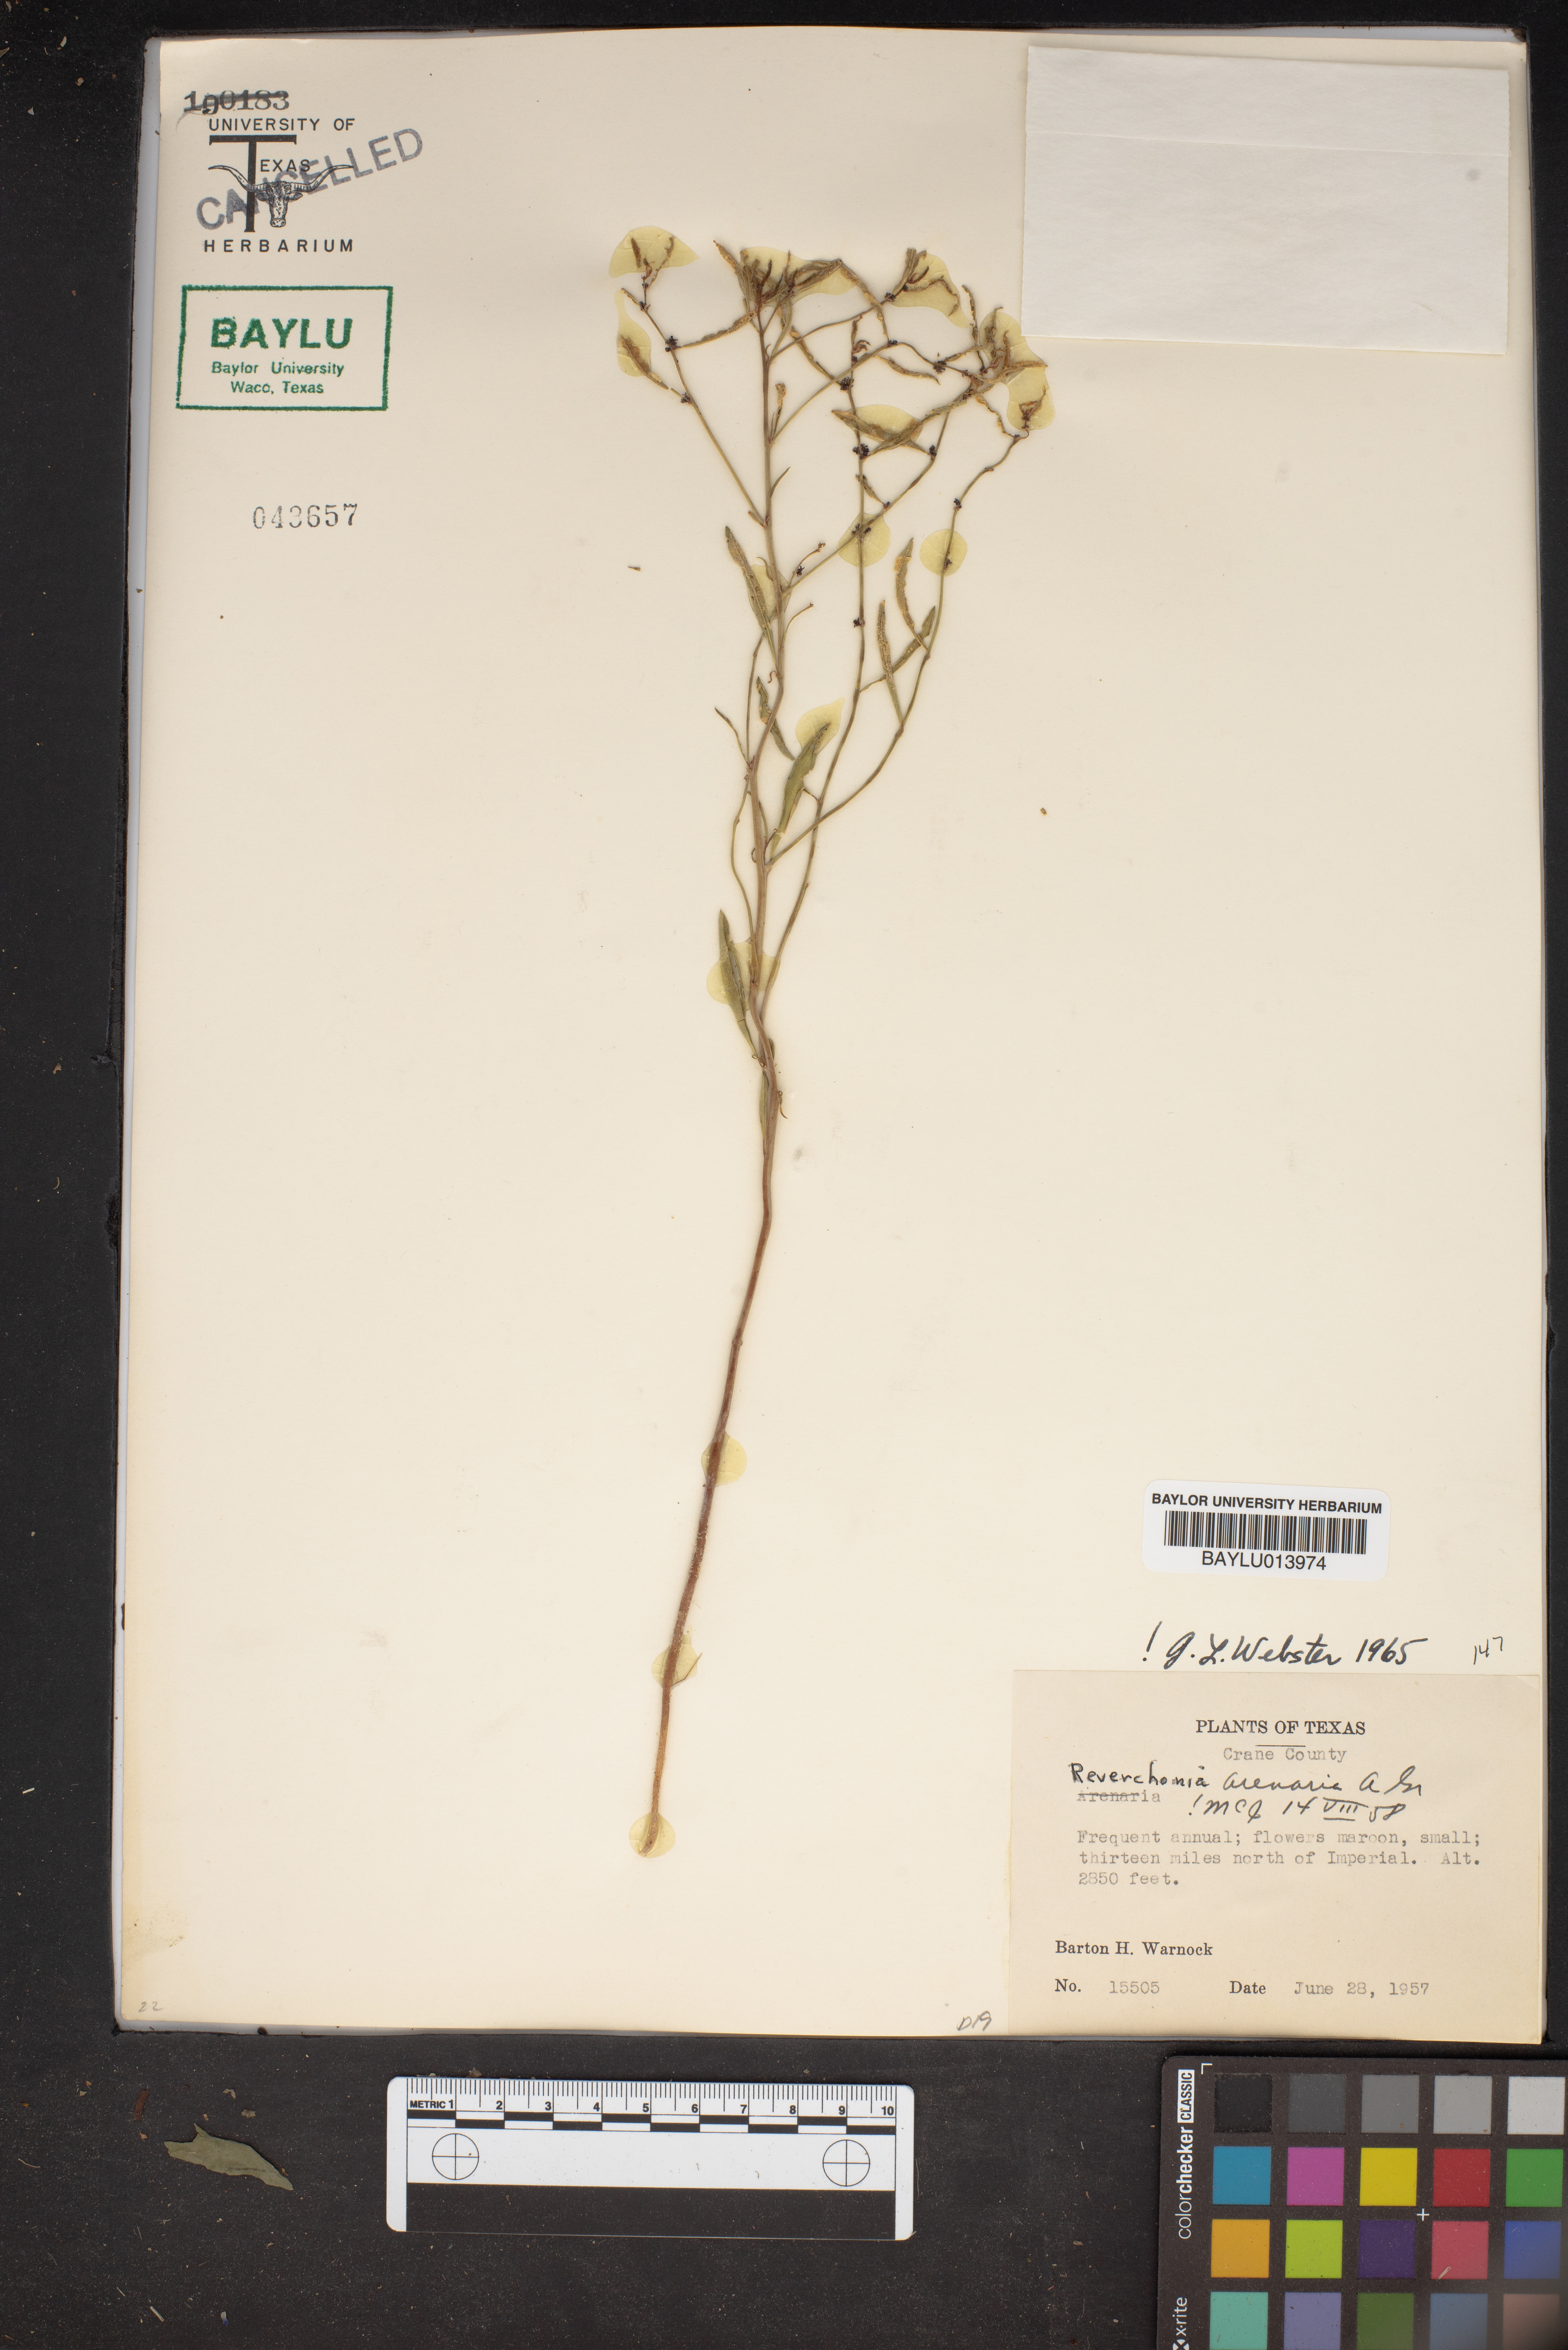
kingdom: Plantae
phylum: Tracheophyta
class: Magnoliopsida
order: Malpighiales
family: Phyllanthaceae
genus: Phyllanthus
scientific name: Phyllanthus warnockii
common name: Sand reverchonia
